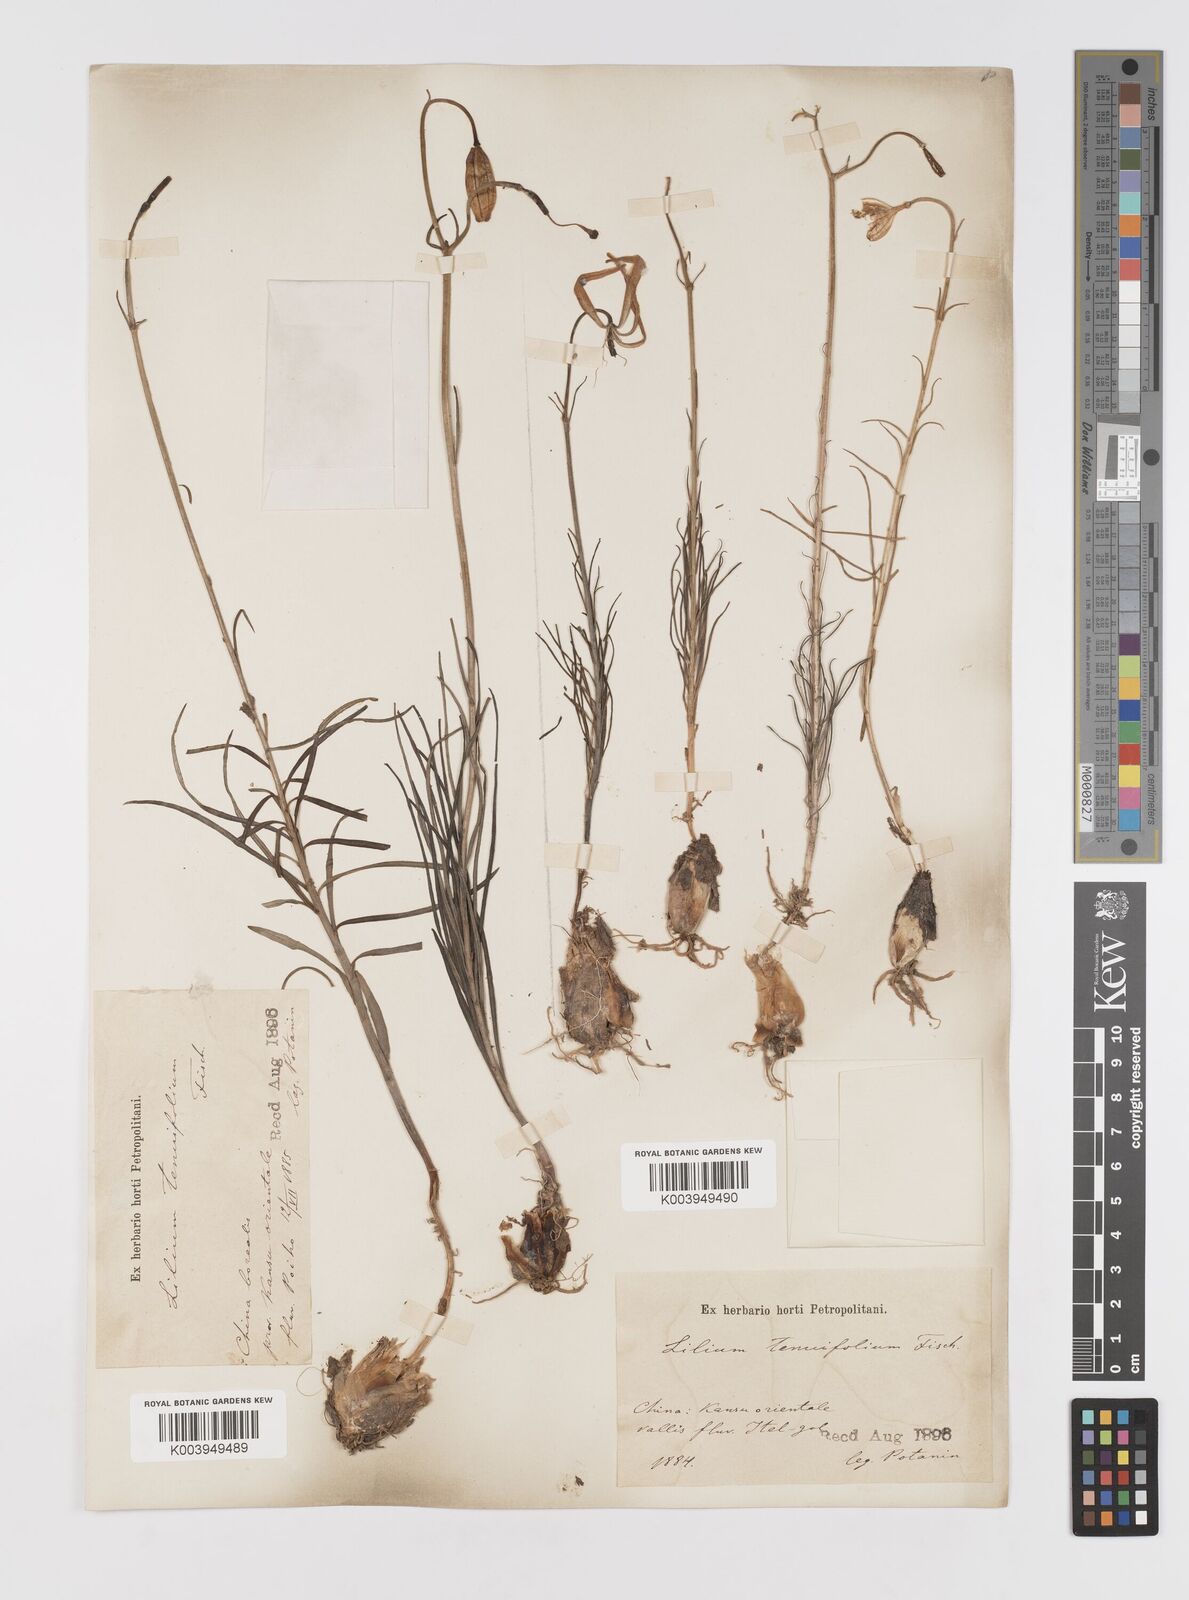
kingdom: Plantae
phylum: Tracheophyta
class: Liliopsida
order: Liliales
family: Liliaceae
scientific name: Liliaceae
